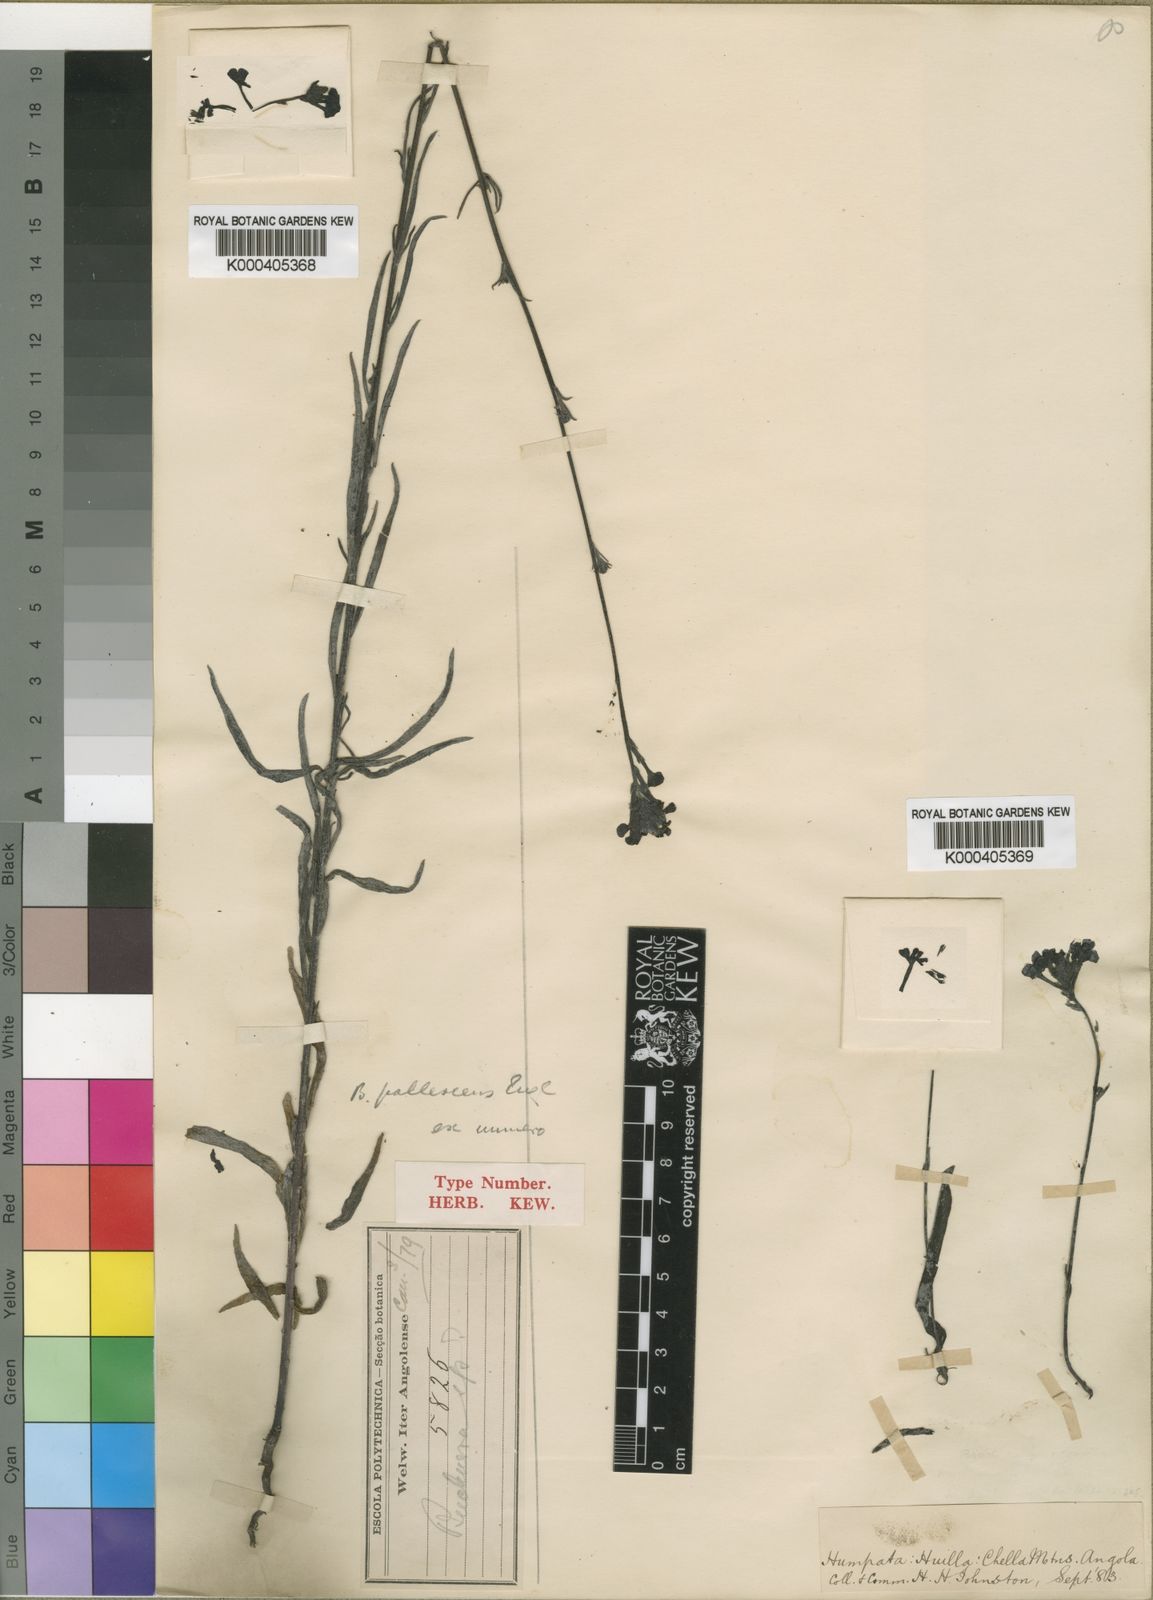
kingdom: Plantae
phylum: Tracheophyta
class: Magnoliopsida
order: Lamiales
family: Orobanchaceae
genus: Buchnera
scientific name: Buchnera pallescens
